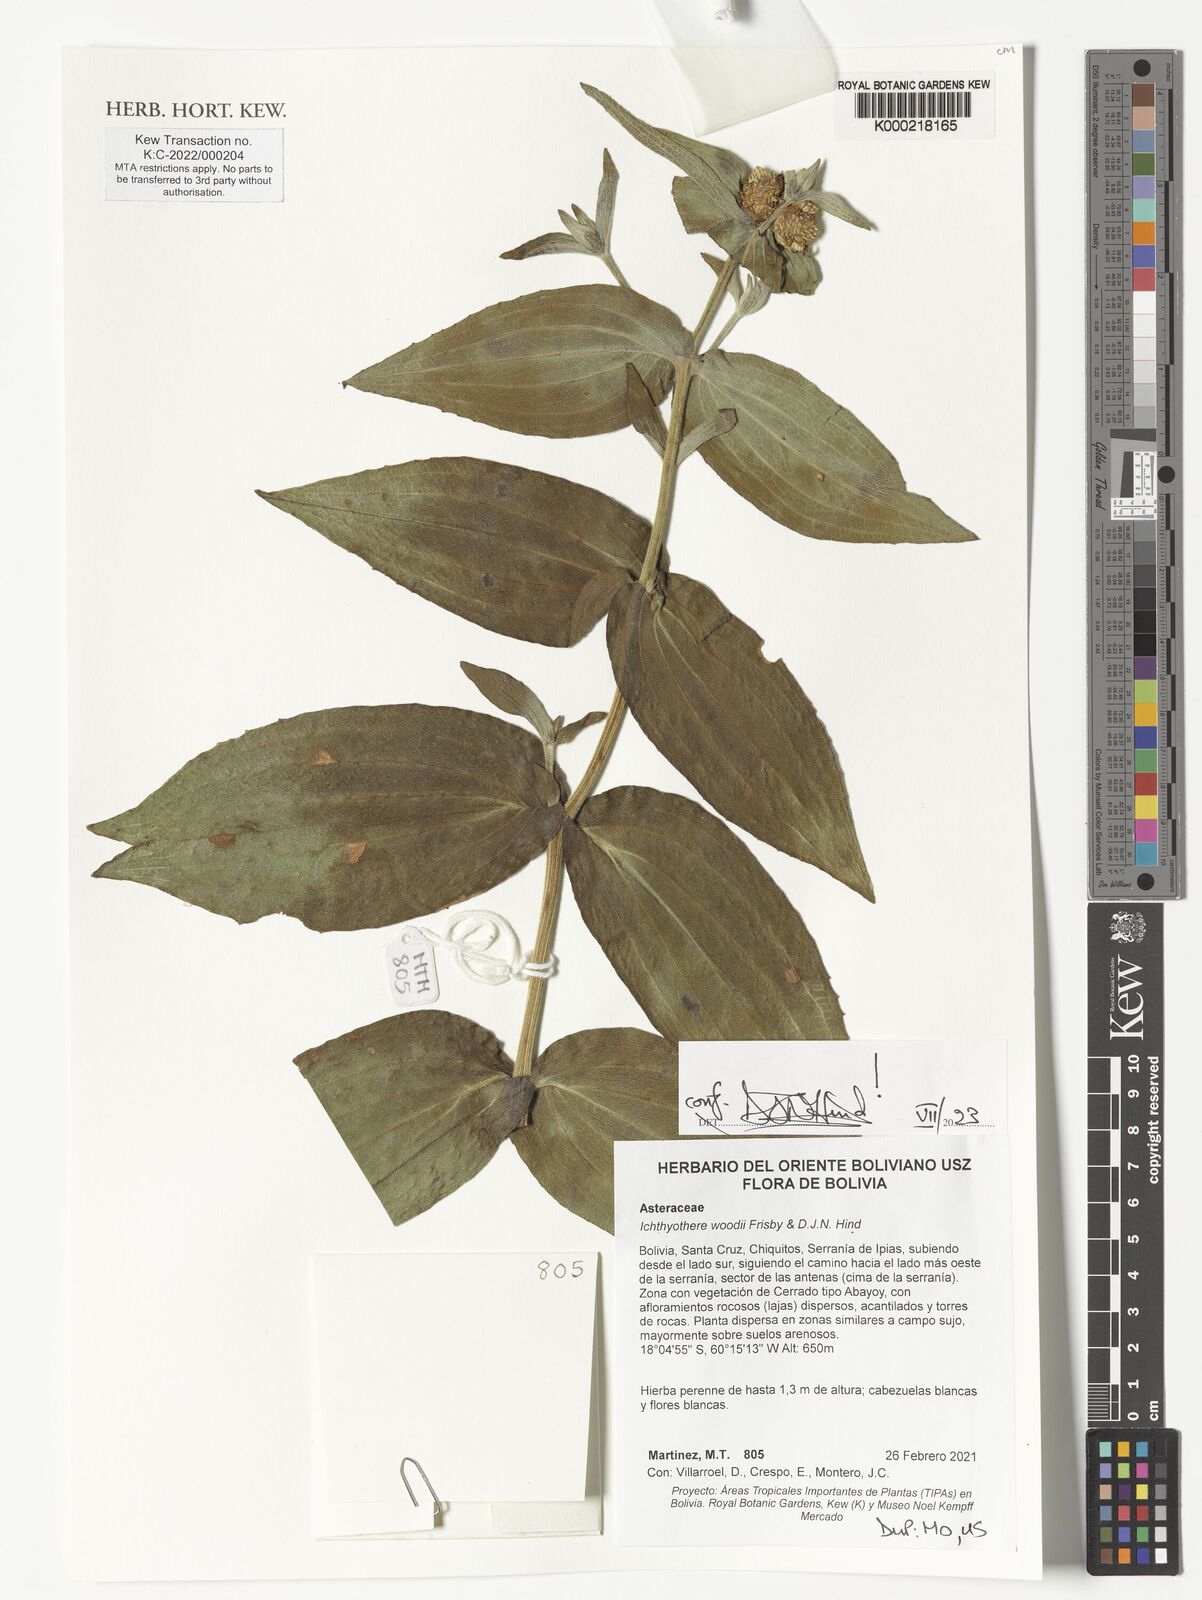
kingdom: Plantae
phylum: Tracheophyta
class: Magnoliopsida
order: Asterales
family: Asteraceae
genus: Ichthyothere
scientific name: Ichthyothere woodii
